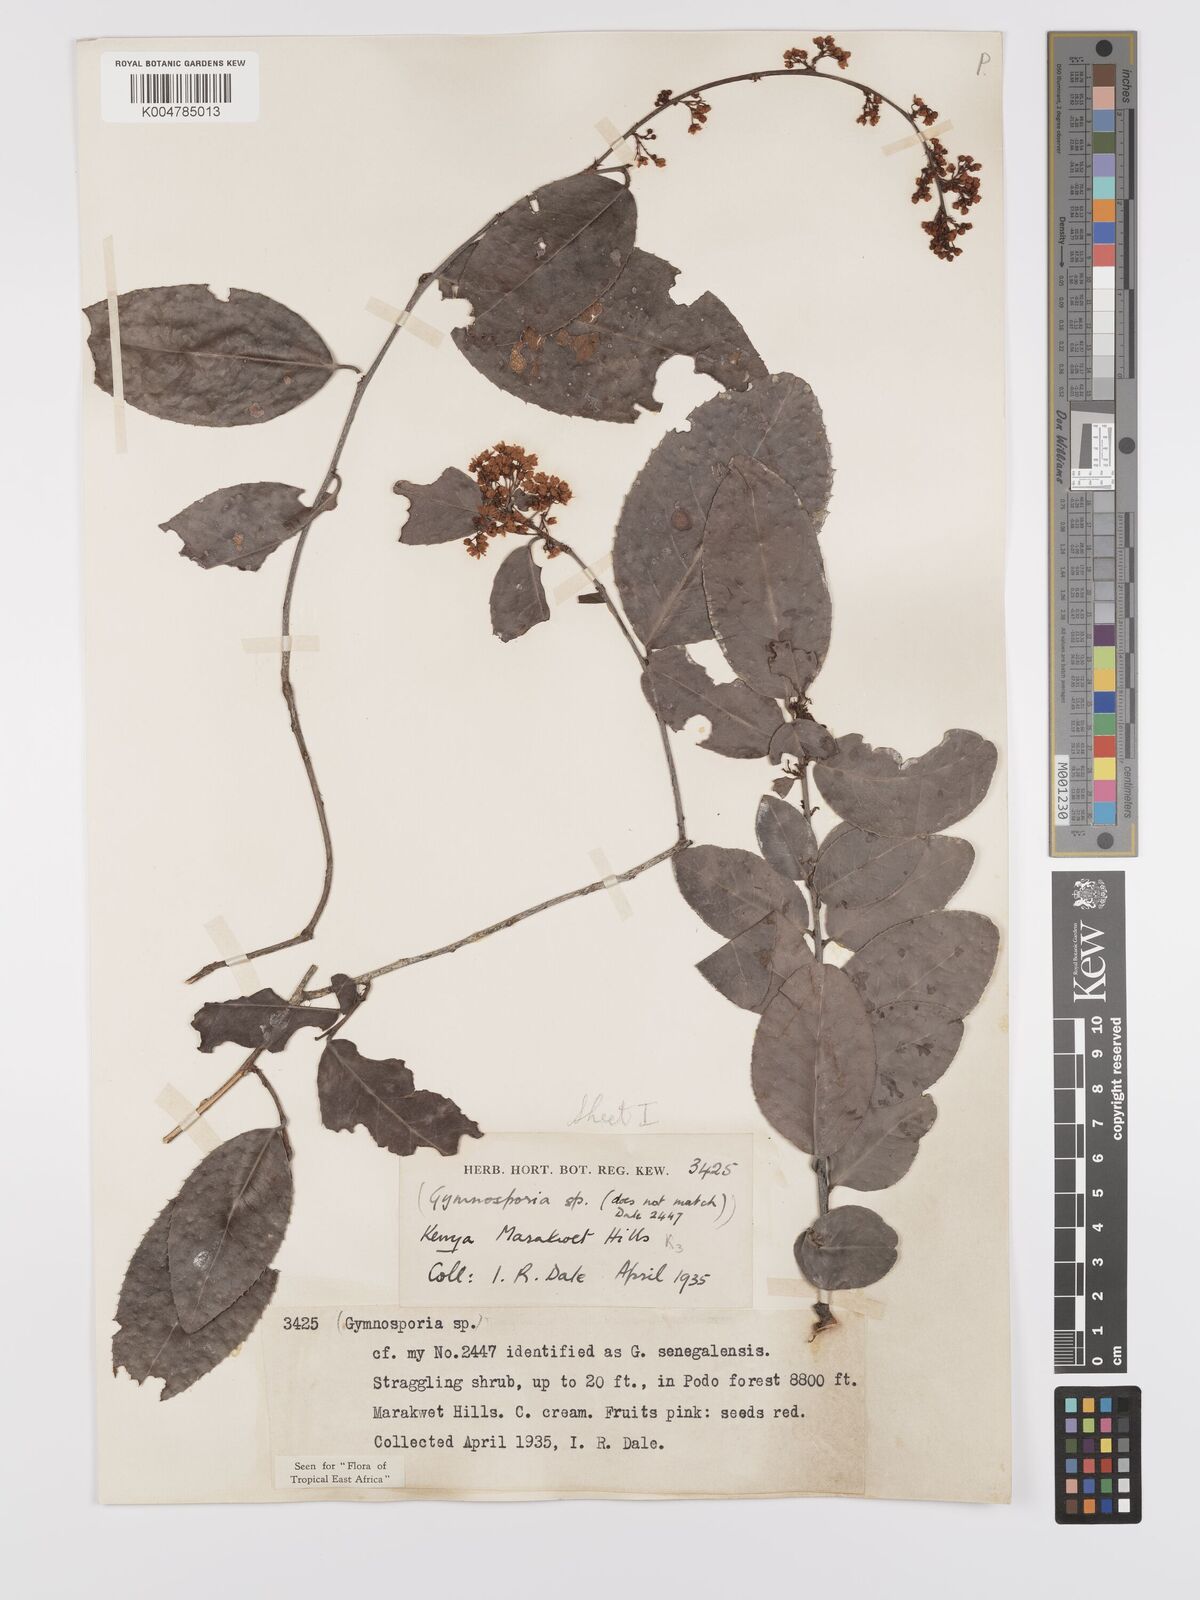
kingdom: Plantae
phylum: Tracheophyta
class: Magnoliopsida
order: Celastrales
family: Celastraceae
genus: Gymnosporia
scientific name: Gymnosporia buchananii
